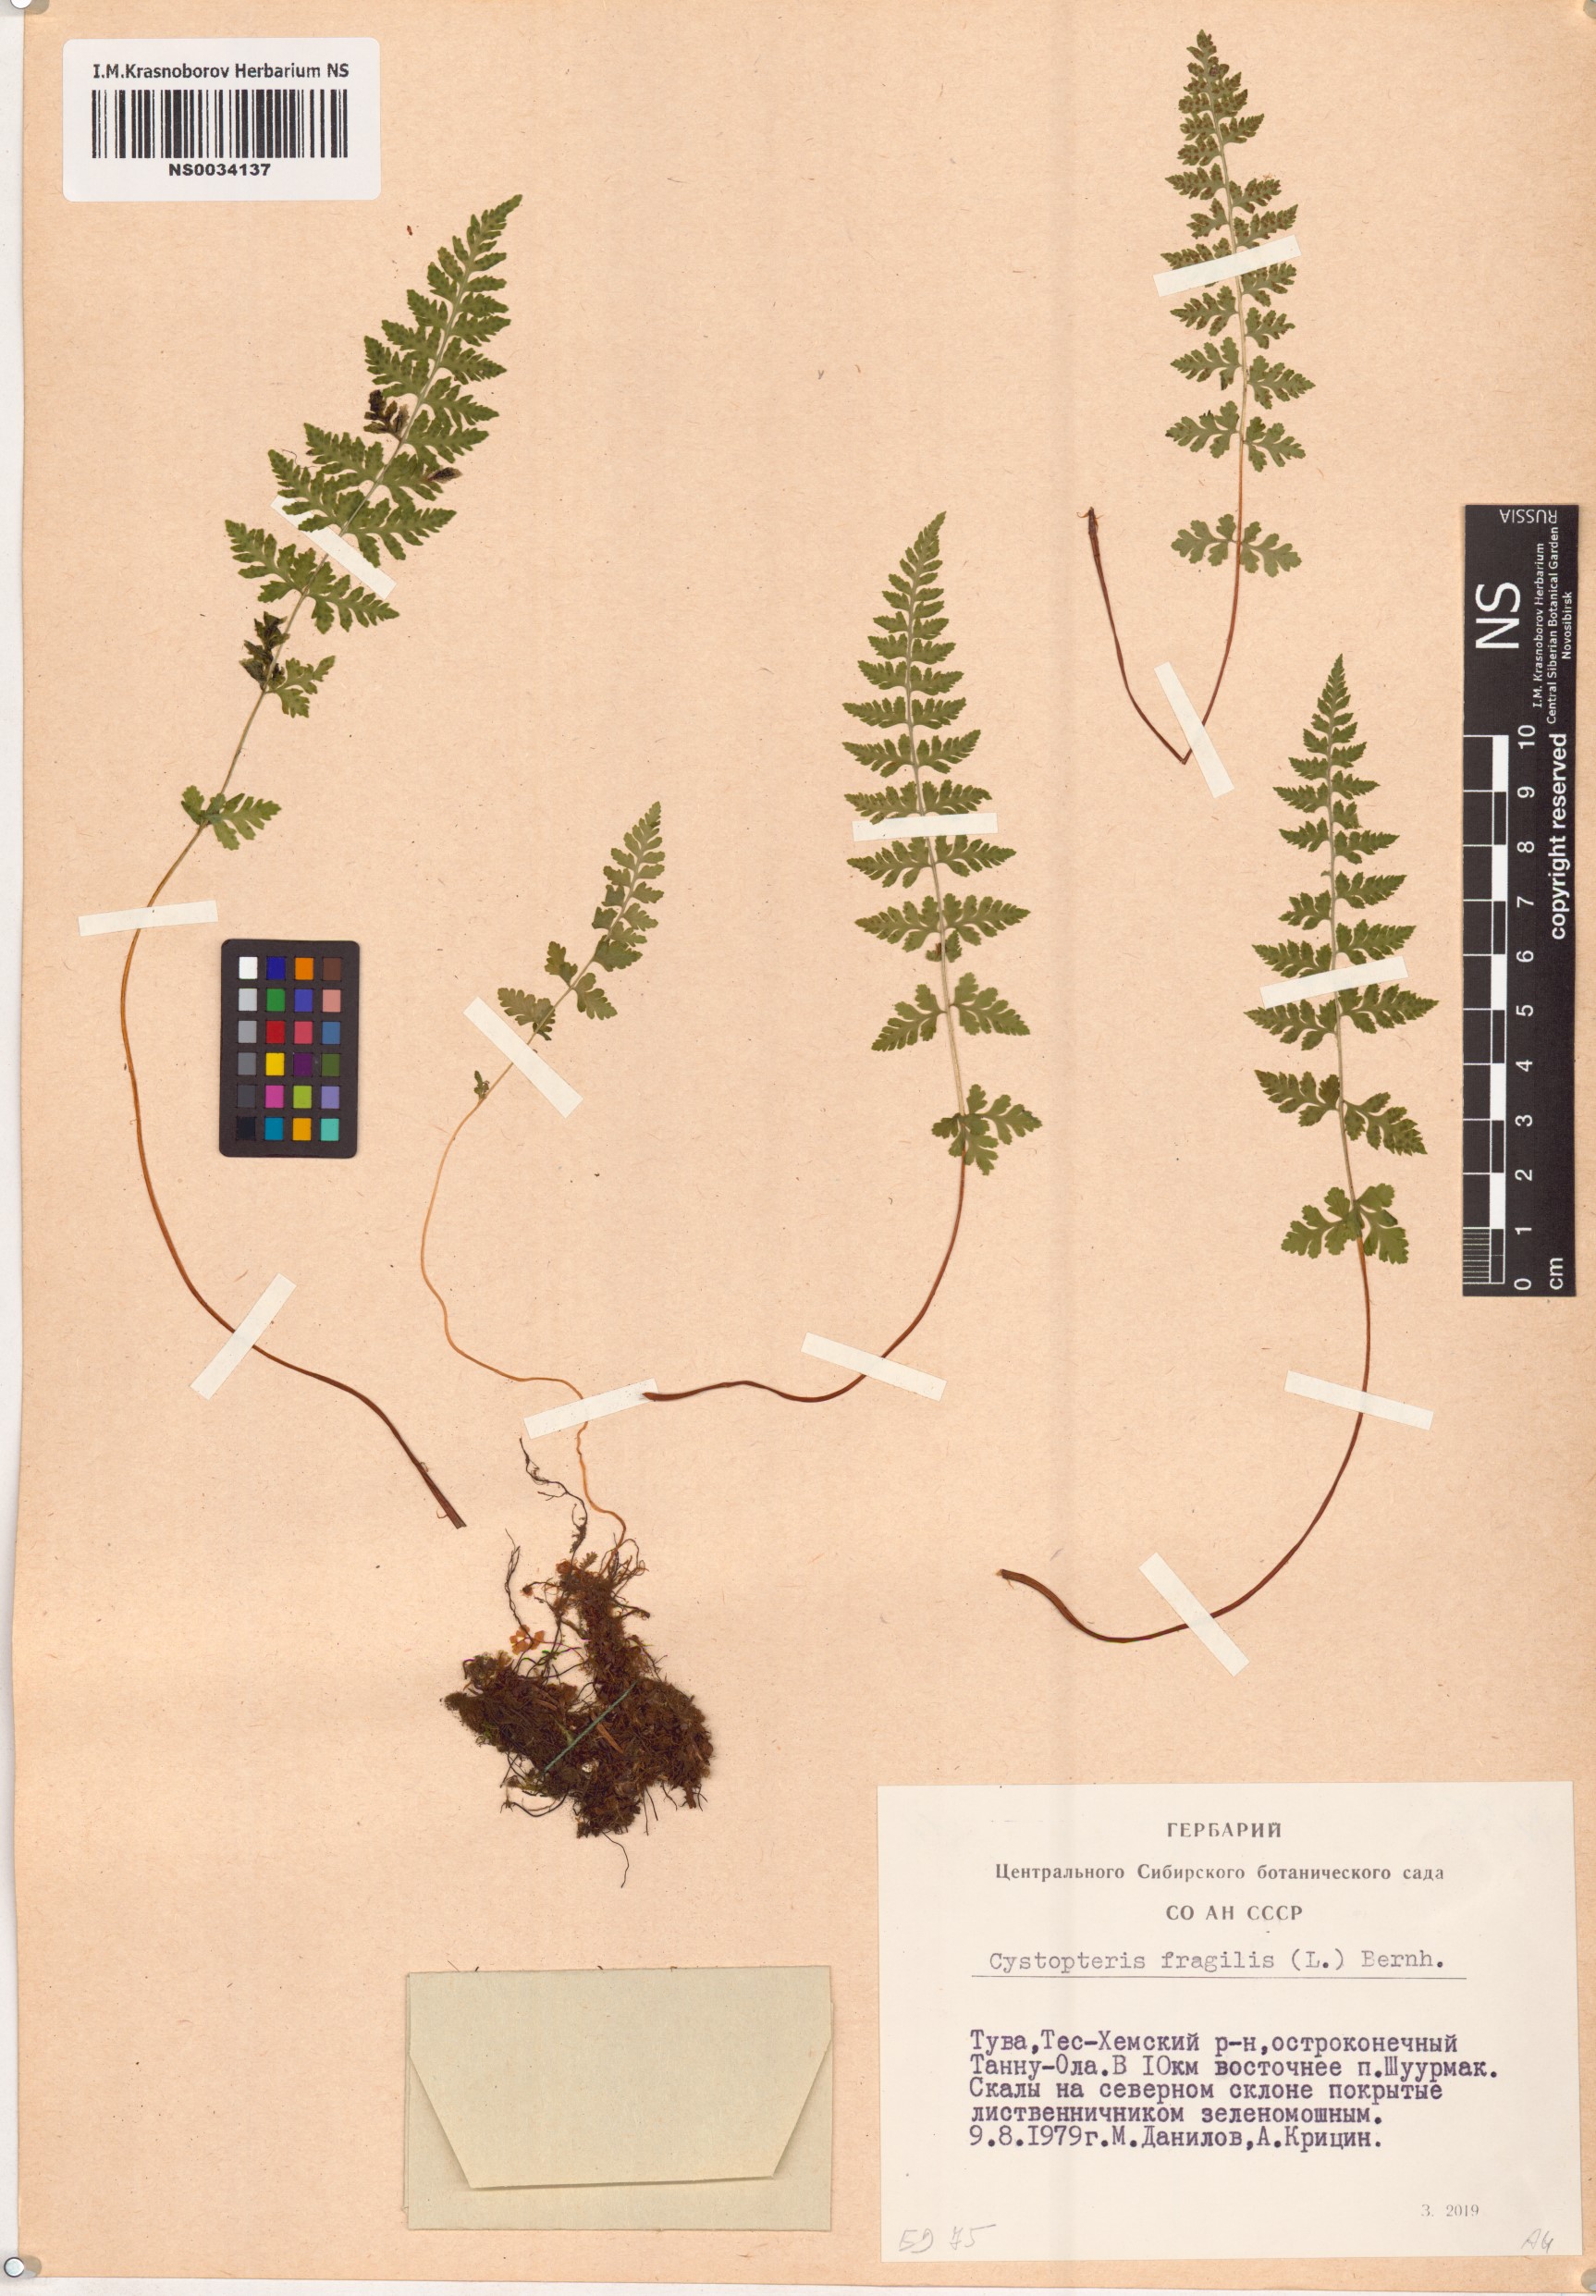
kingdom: Plantae
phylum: Tracheophyta
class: Polypodiopsida
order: Polypodiales
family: Cystopteridaceae
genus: Cystopteris
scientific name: Cystopteris fragilis
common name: Brittle bladder fern
